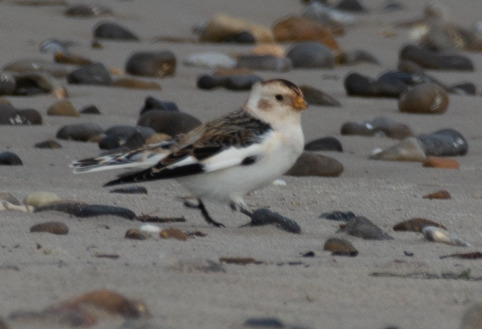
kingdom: Animalia
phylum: Chordata
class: Aves
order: Passeriformes
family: Calcariidae
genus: Plectrophenax
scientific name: Plectrophenax nivalis
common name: Snespurv
